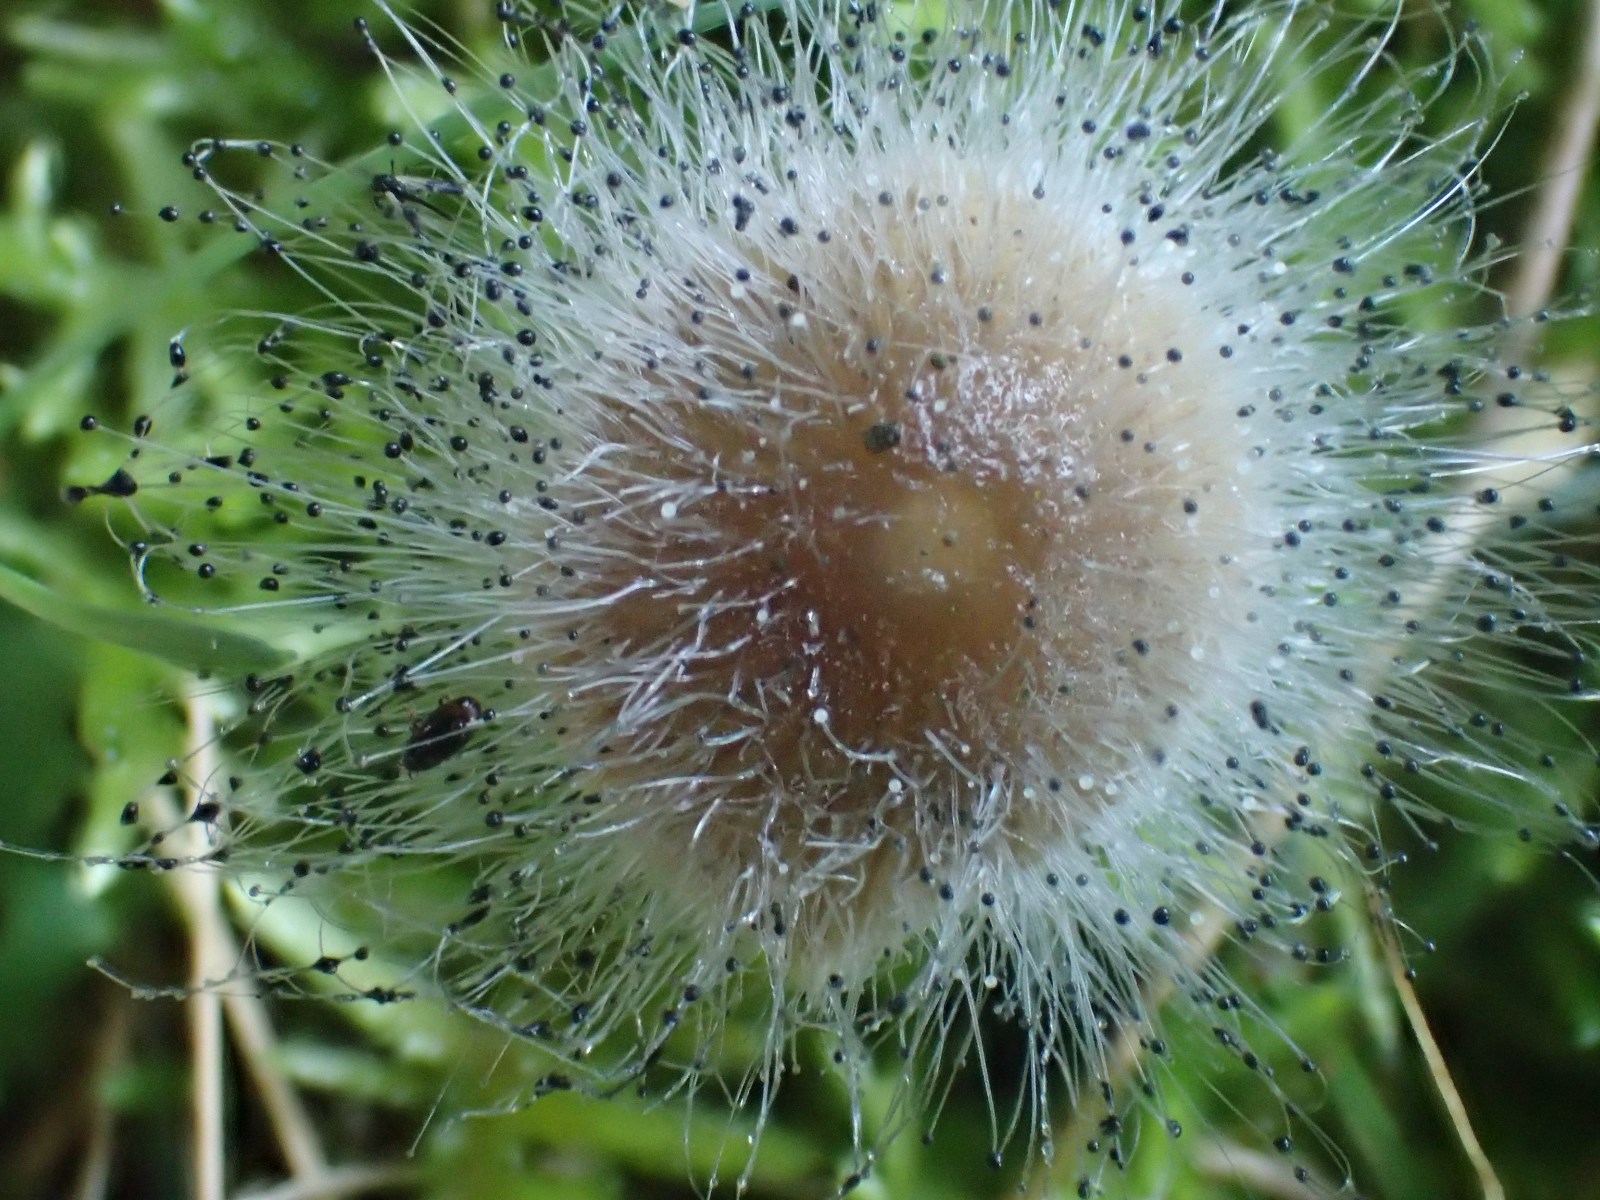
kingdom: Fungi
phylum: Mucoromycota
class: Mucoromycetes
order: Mucorales
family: Phycomycetaceae
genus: Spinellus
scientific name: Spinellus fusiger
